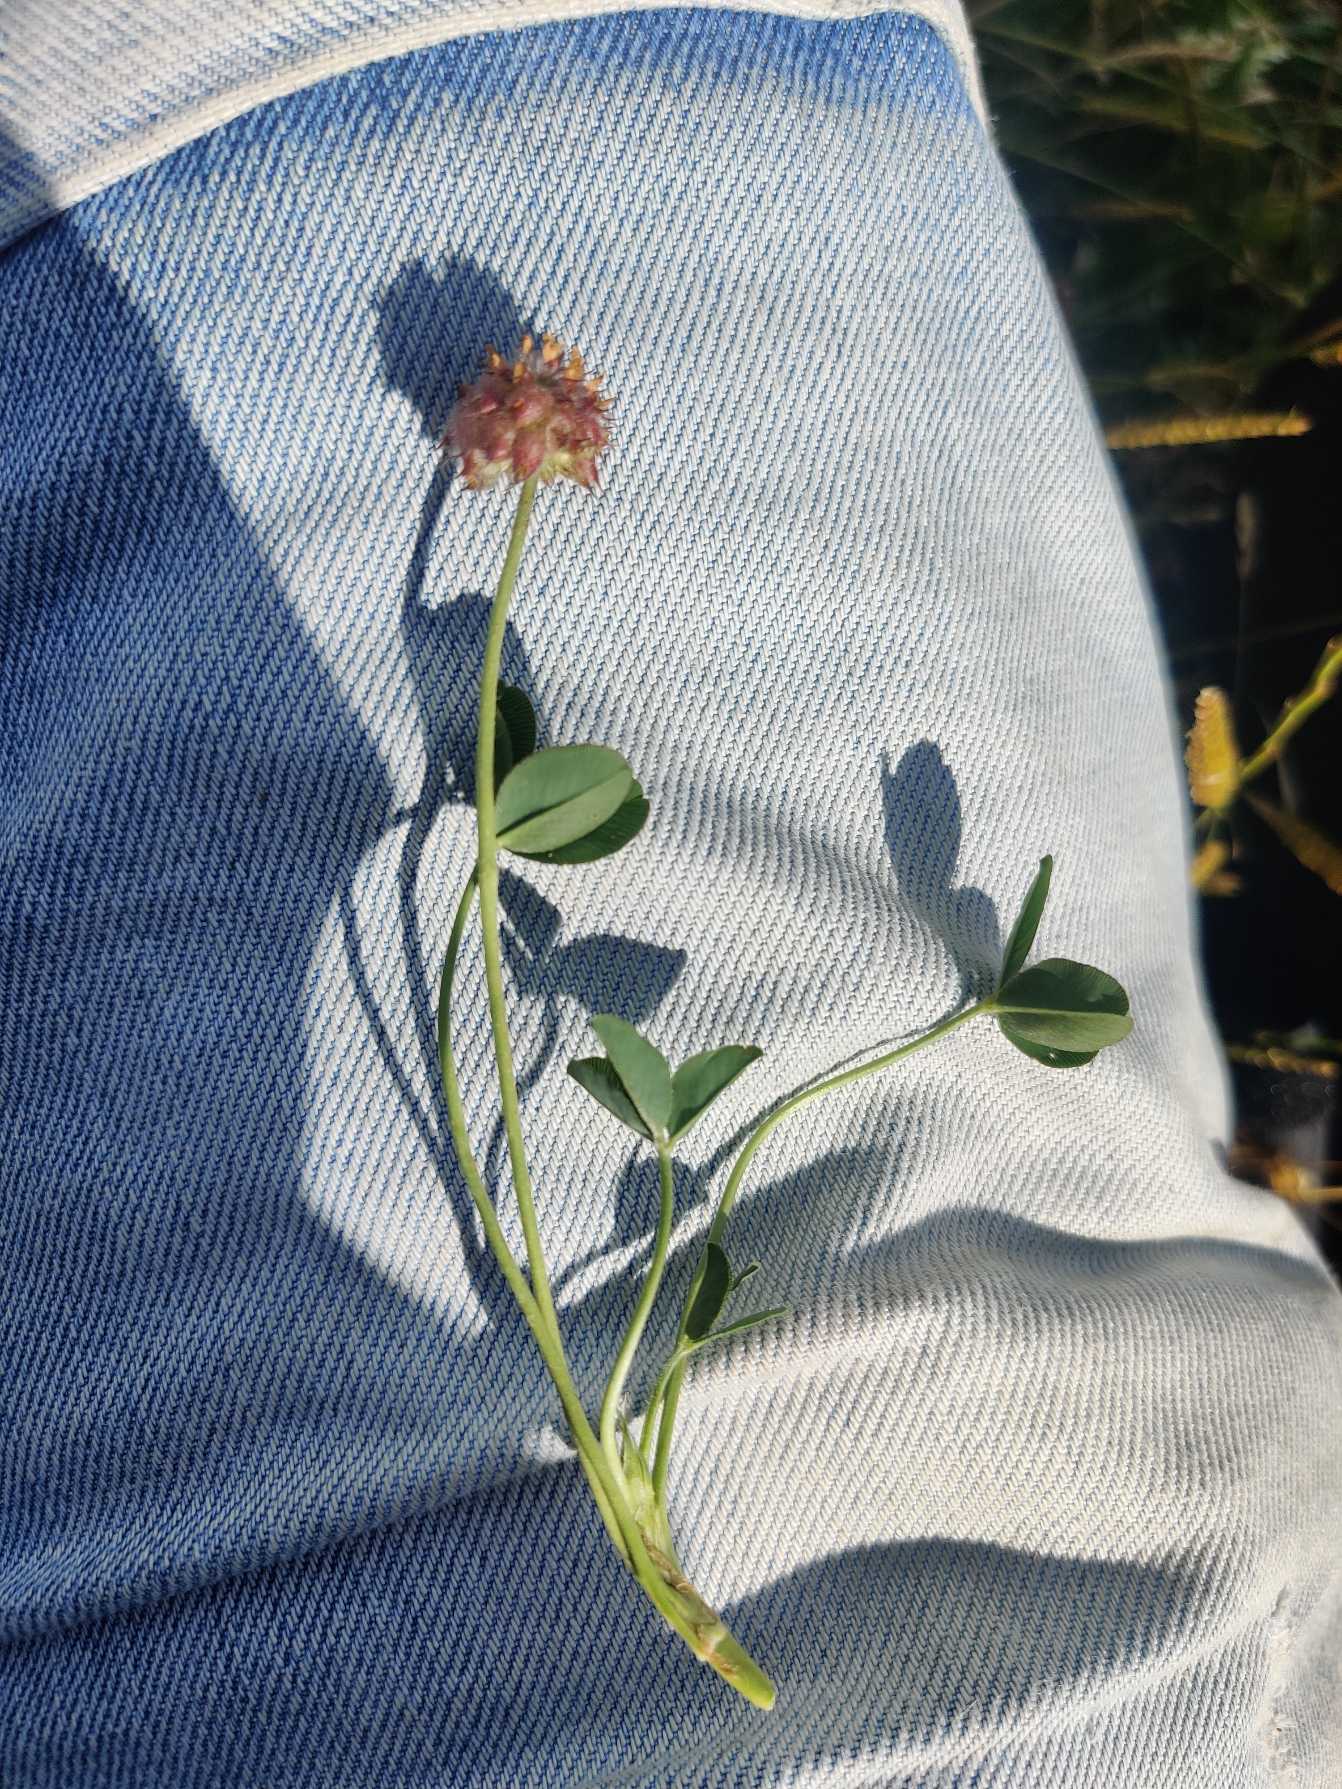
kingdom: Plantae
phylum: Tracheophyta
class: Magnoliopsida
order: Fabales
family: Fabaceae
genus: Trifolium
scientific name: Trifolium fragiferum
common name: Jordbær-kløver
